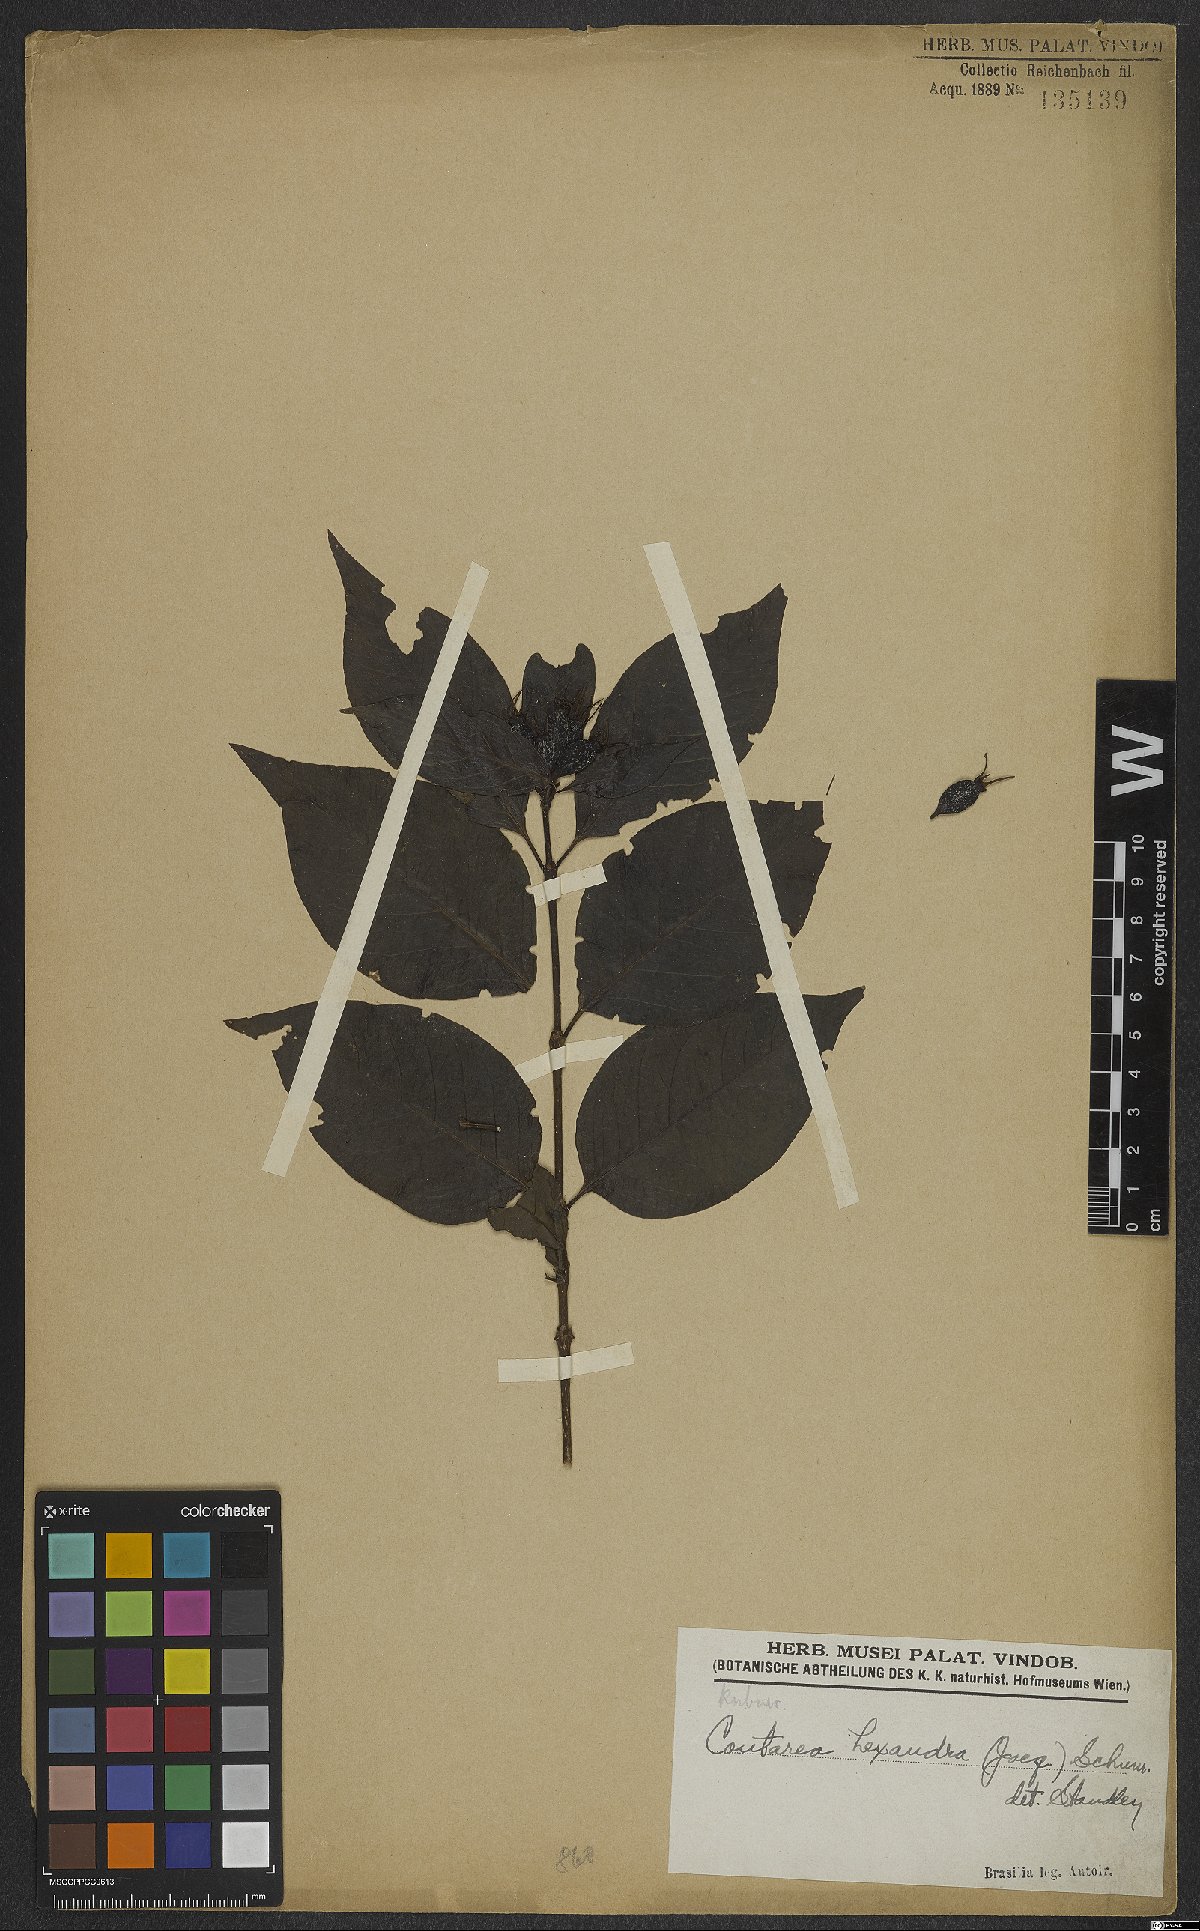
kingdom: Plantae
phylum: Tracheophyta
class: Magnoliopsida
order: Gentianales
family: Rubiaceae
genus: Coutarea
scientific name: Coutarea hexandra
